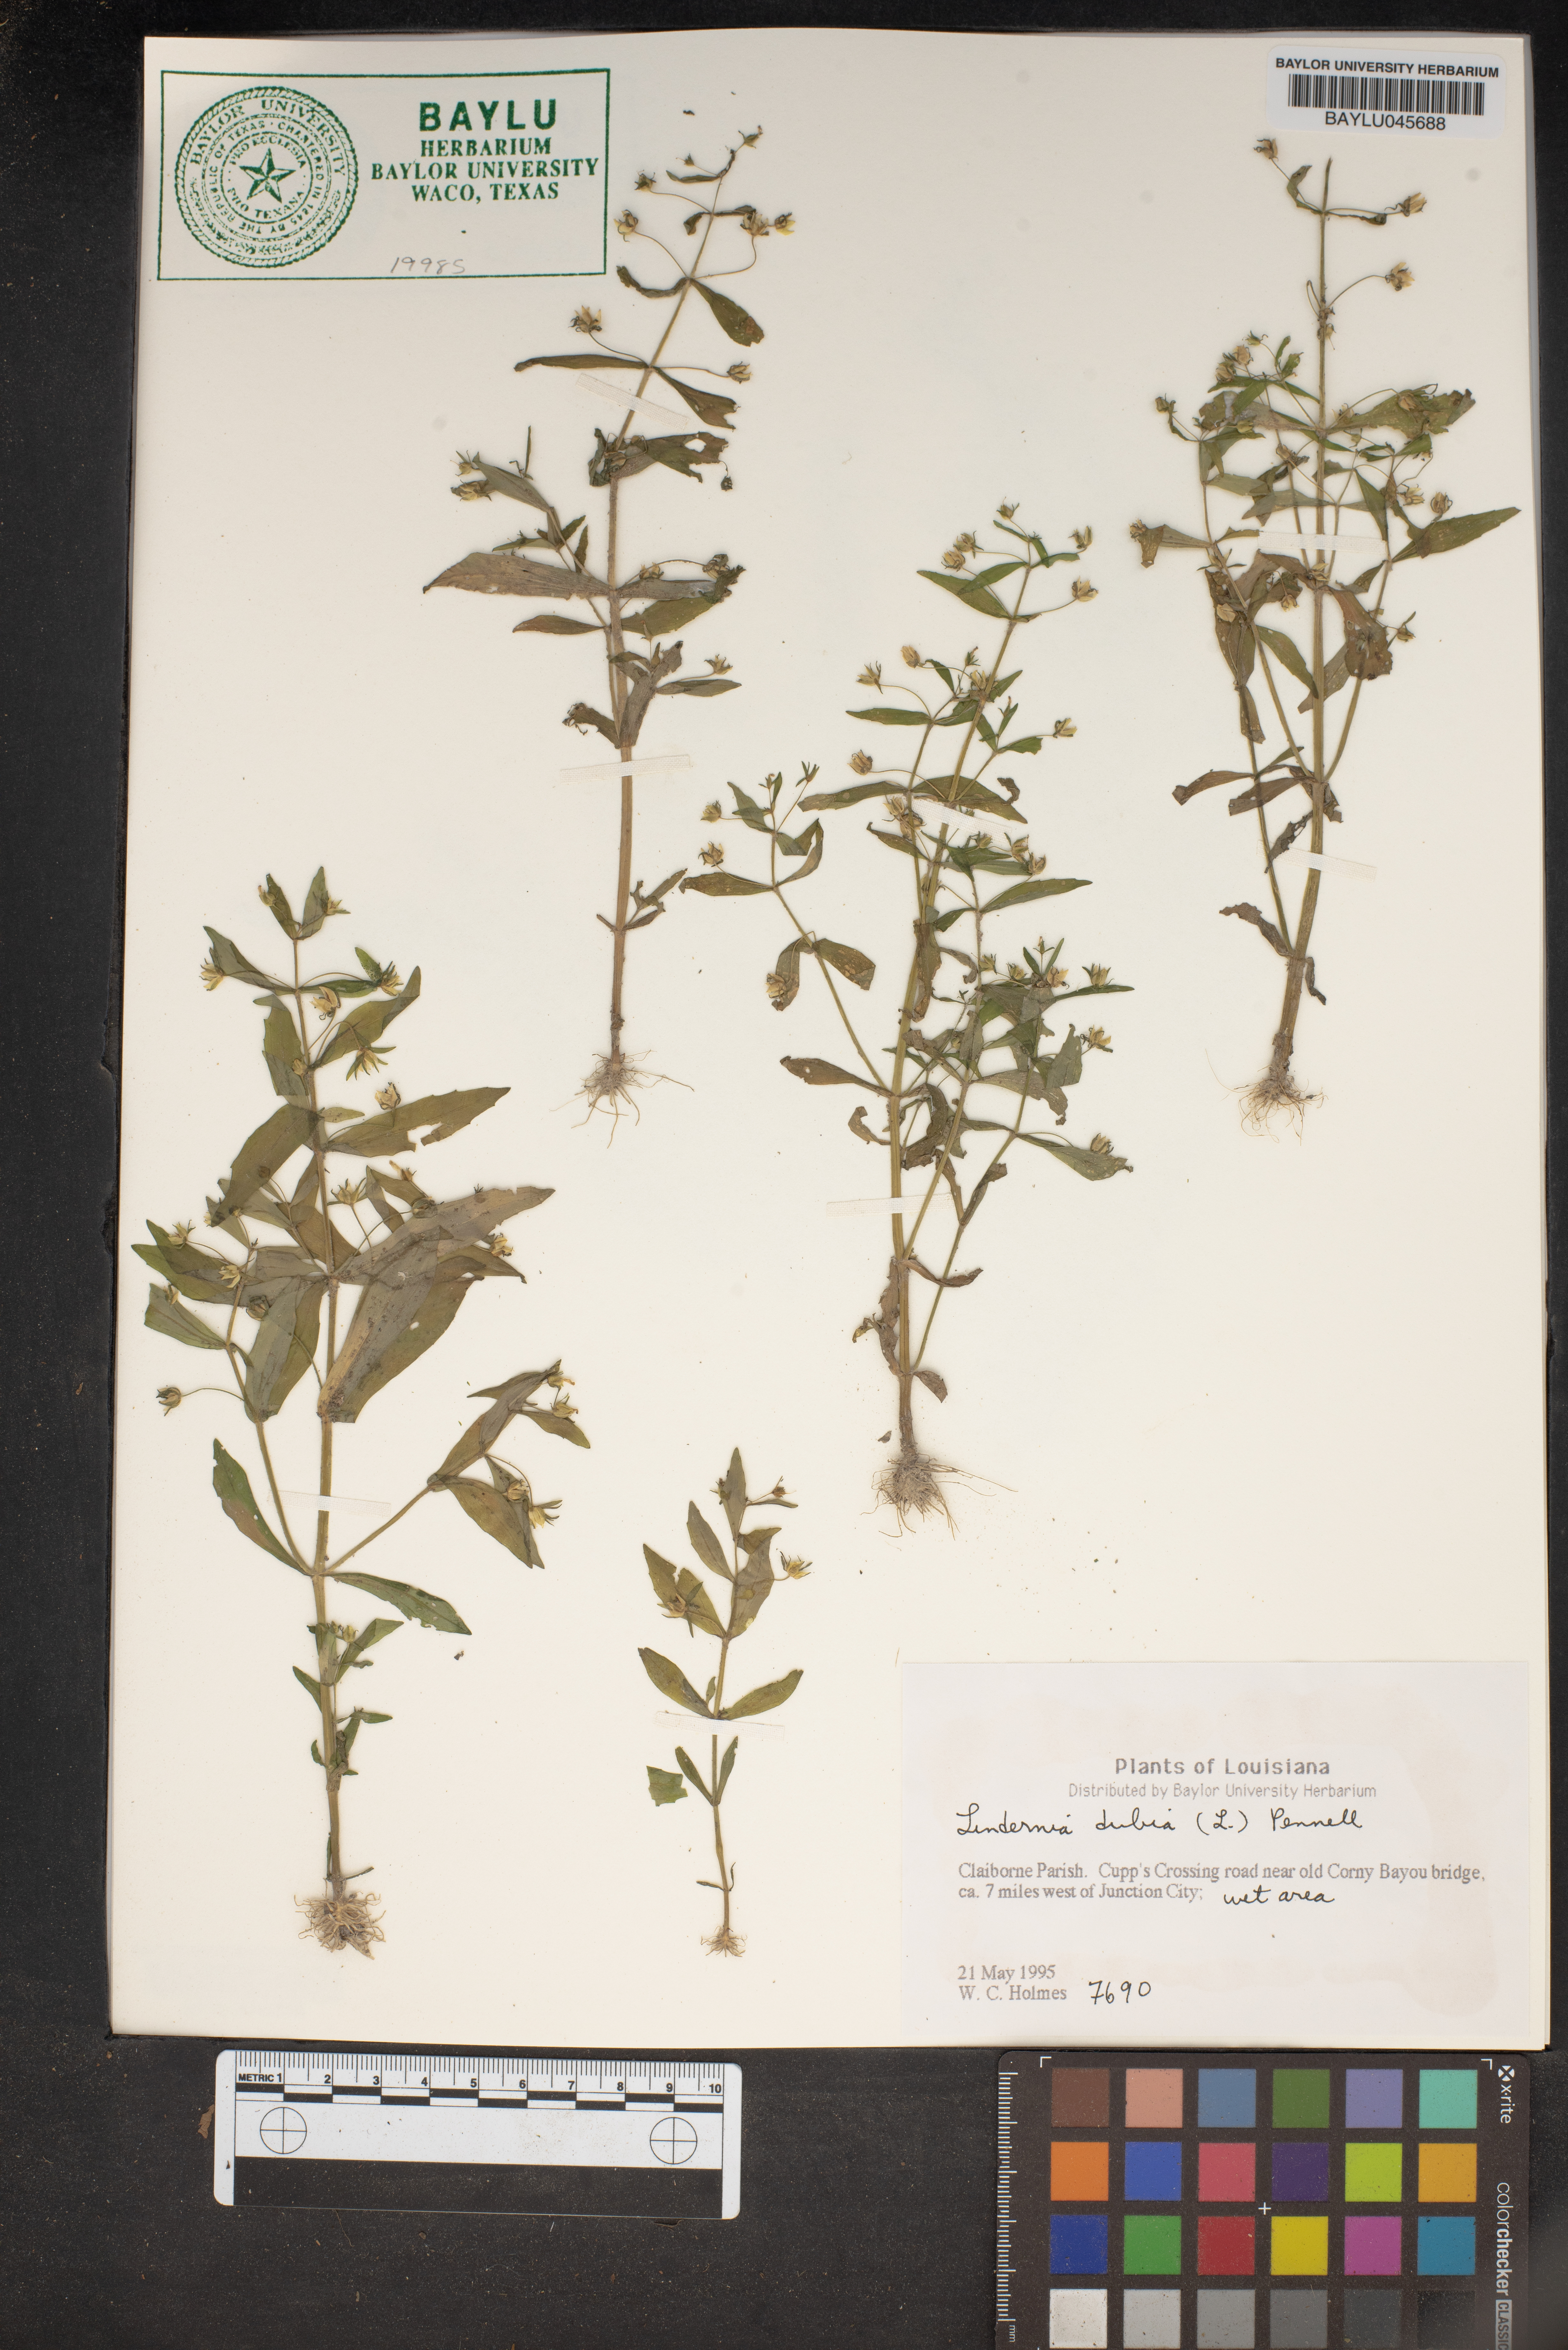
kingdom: Plantae
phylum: Tracheophyta
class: Magnoliopsida
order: Lamiales
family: Linderniaceae
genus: Lindernia
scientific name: Lindernia dubia
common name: Annual false pimpernel
